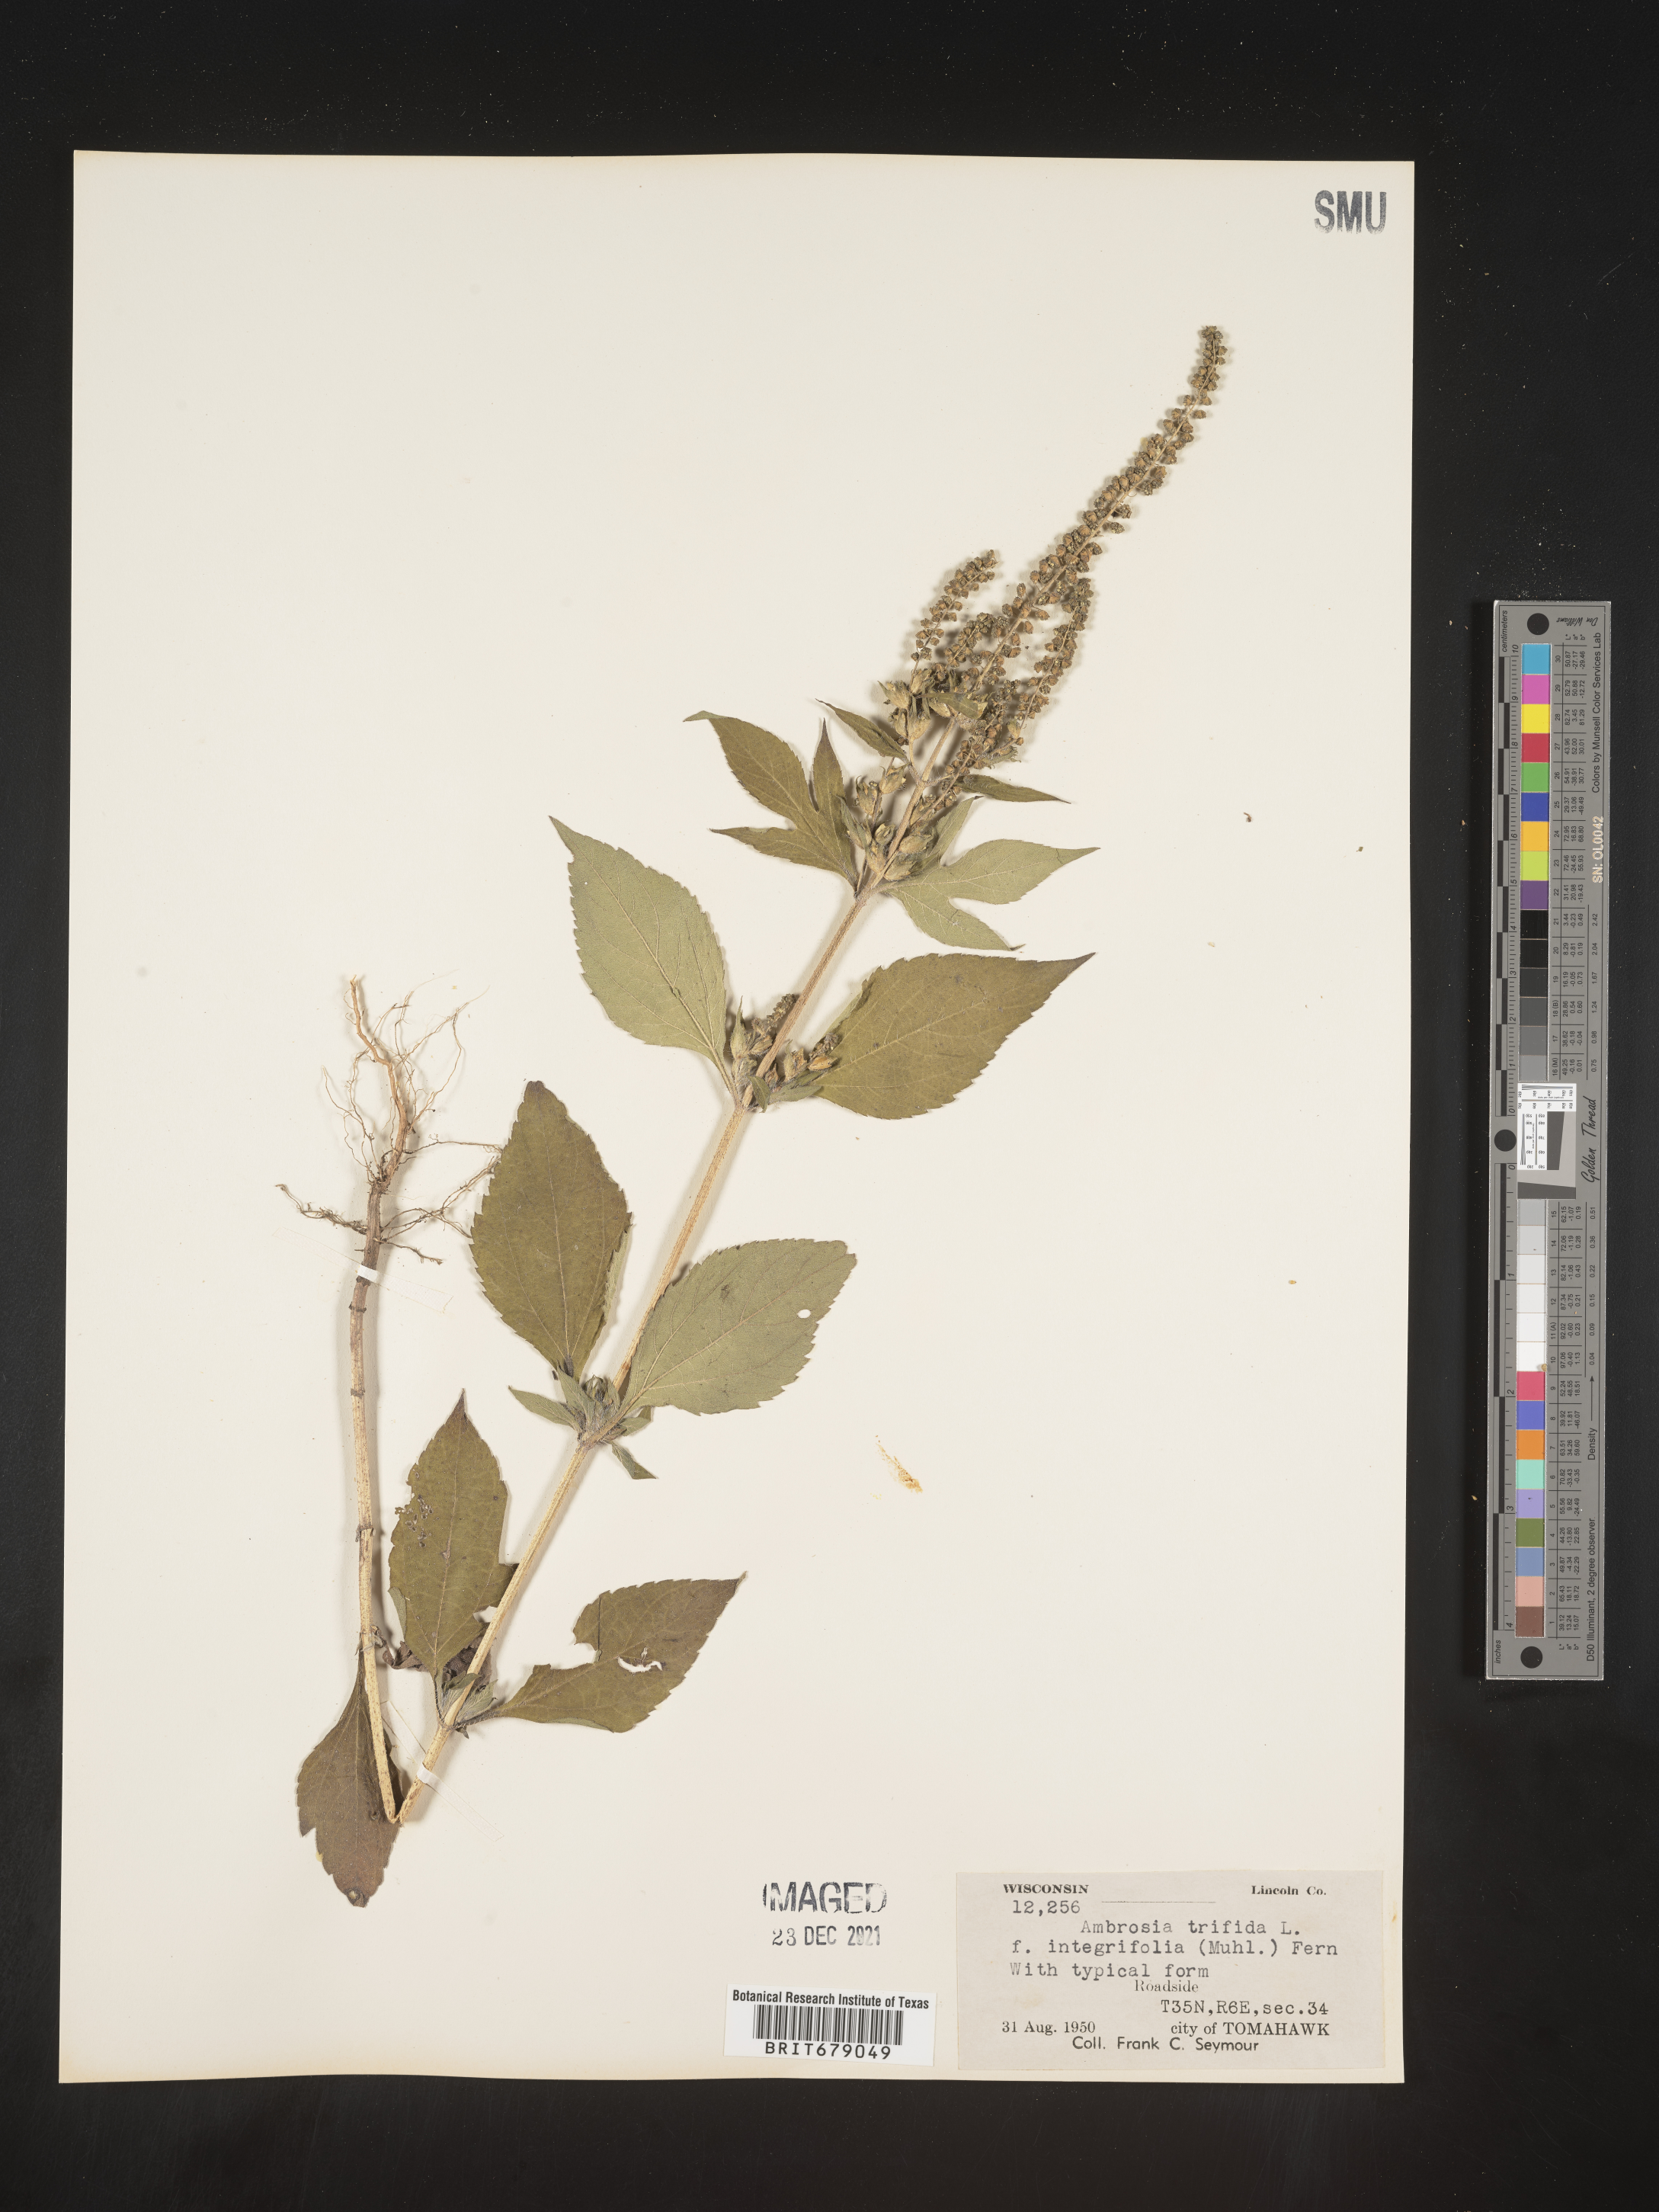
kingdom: Plantae
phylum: Tracheophyta
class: Magnoliopsida
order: Asterales
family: Asteraceae
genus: Ambrosia
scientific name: Ambrosia trifida
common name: Giant ragweed
